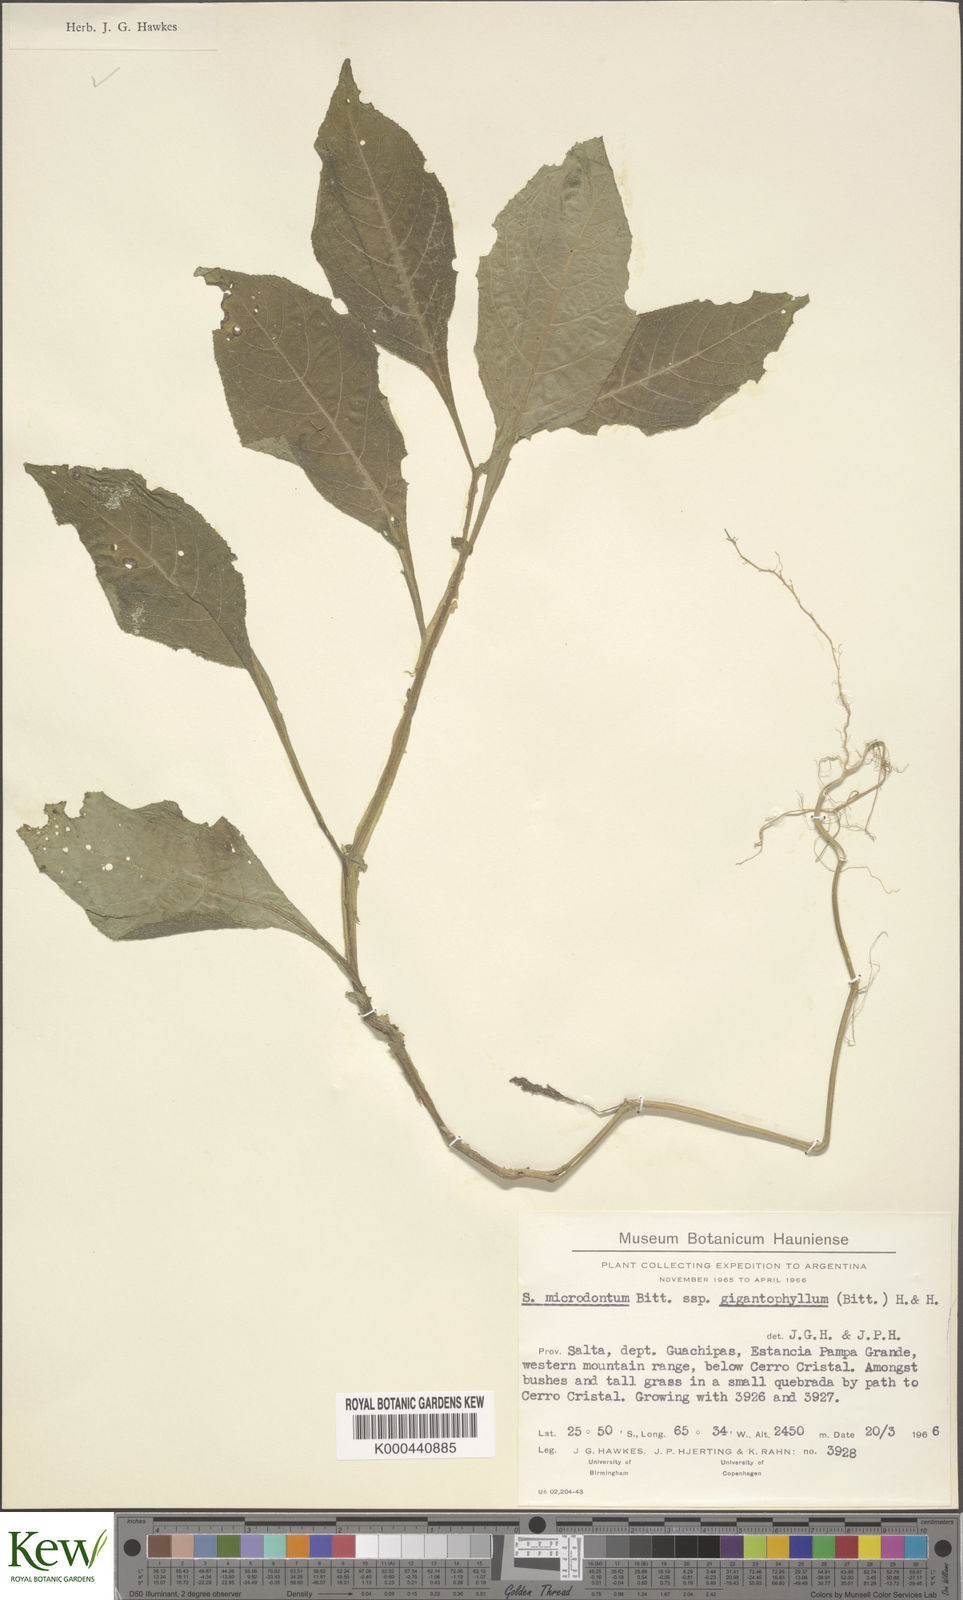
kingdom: Plantae
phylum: Tracheophyta
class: Magnoliopsida
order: Solanales
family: Solanaceae
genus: Solanum
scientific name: Solanum microdontum
